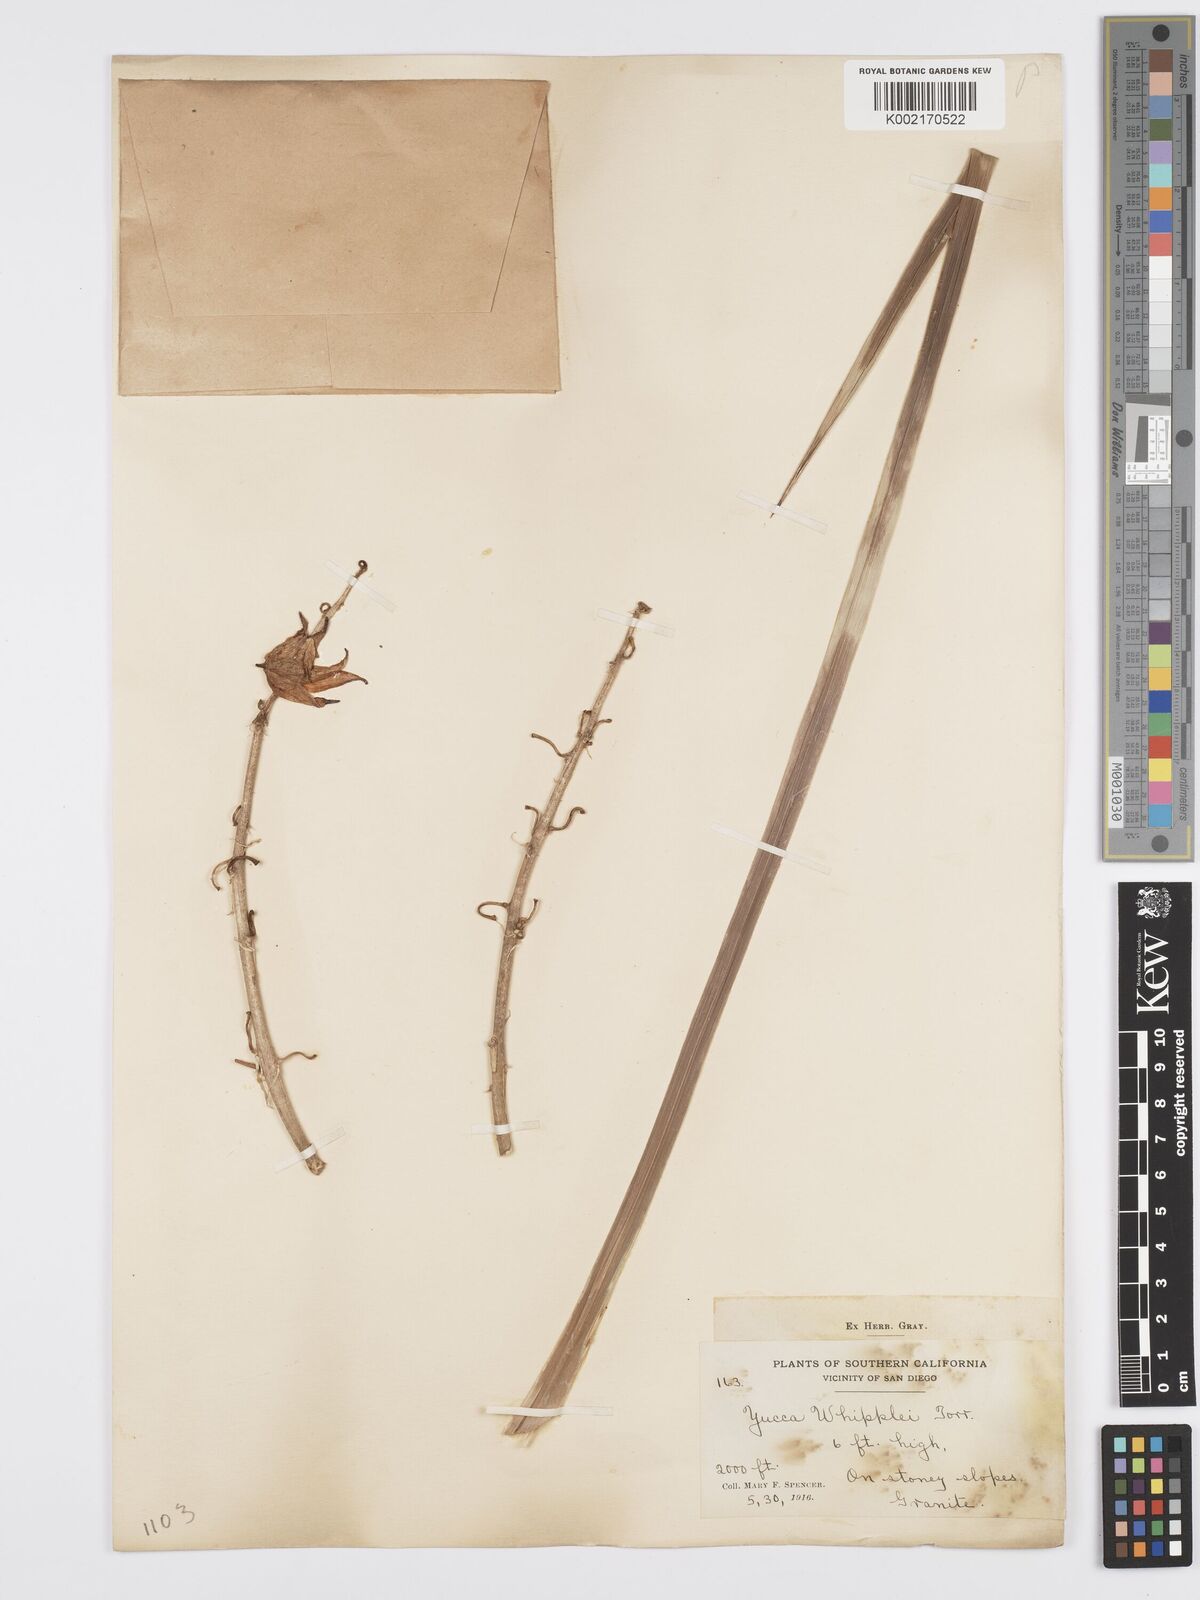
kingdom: Plantae
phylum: Tracheophyta
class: Liliopsida
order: Asparagales
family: Asparagaceae
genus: Hesperoyucca
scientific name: Hesperoyucca whipplei
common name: Our lord's-candle
